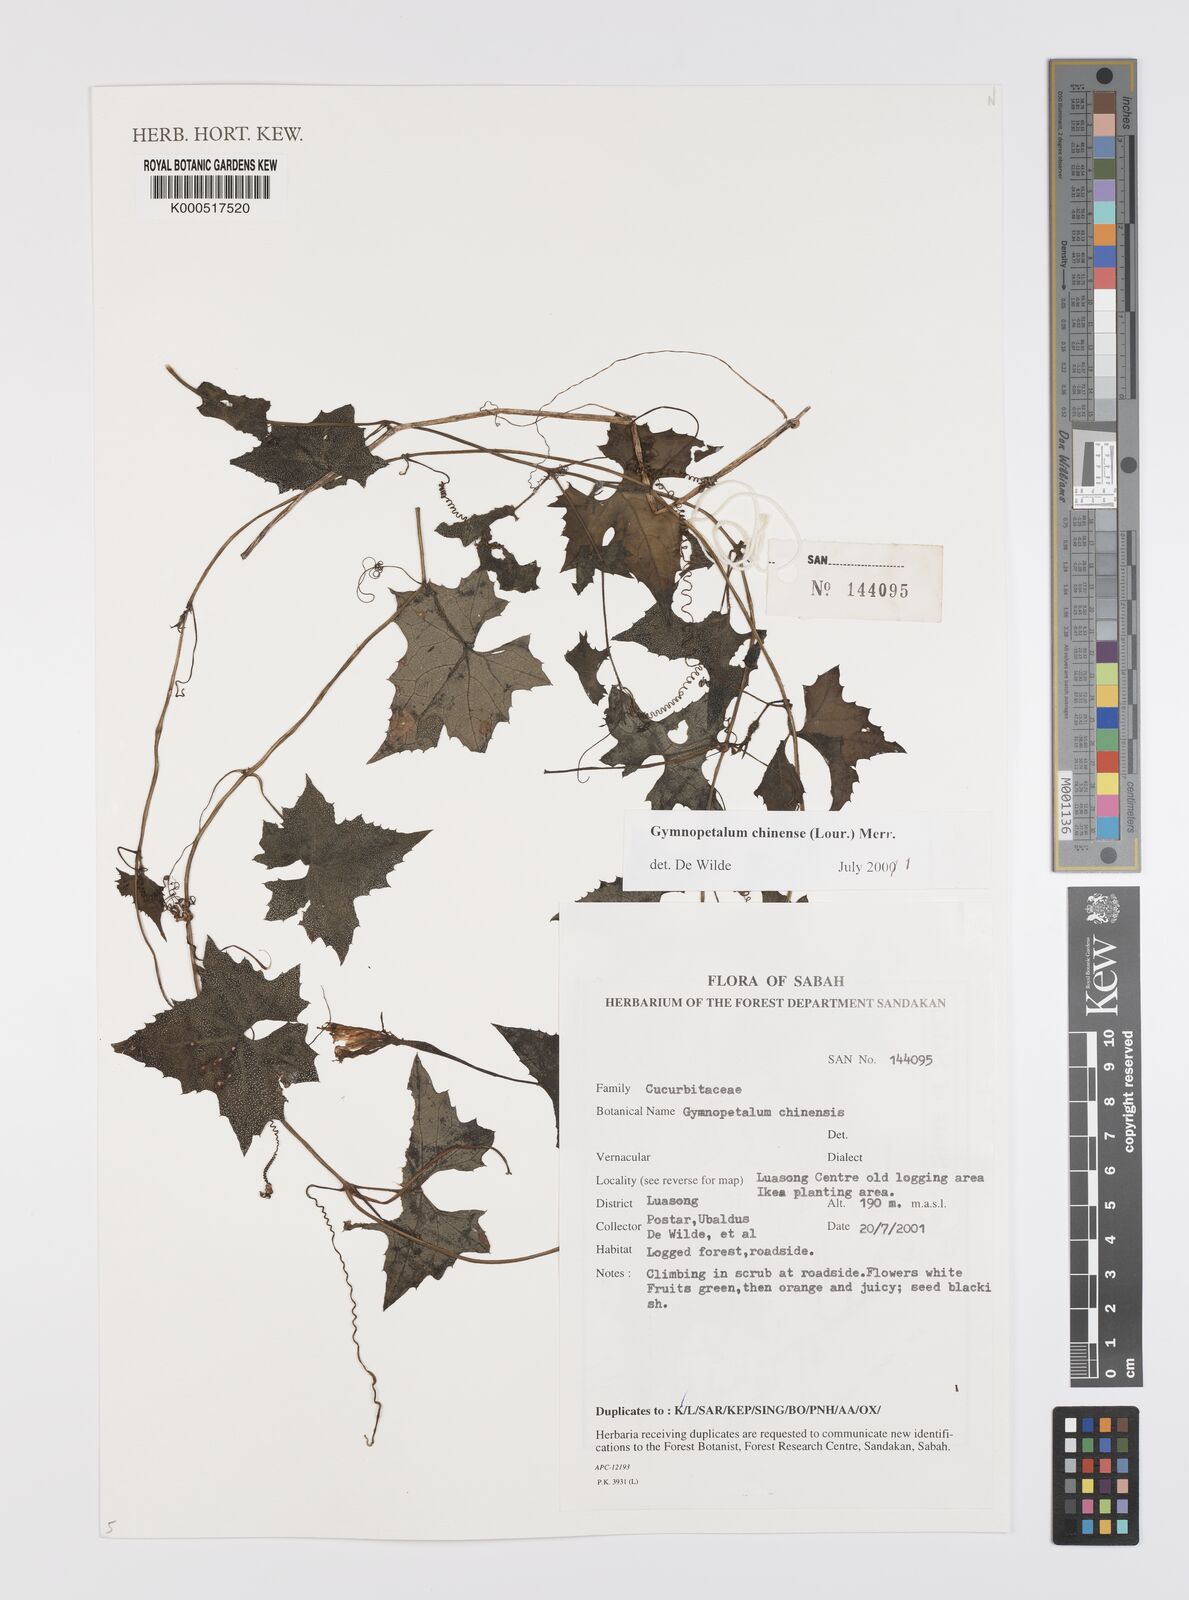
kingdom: Plantae
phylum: Tracheophyta
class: Magnoliopsida
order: Cucurbitales
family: Cucurbitaceae
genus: Trichosanthes
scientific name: Trichosanthes costata
